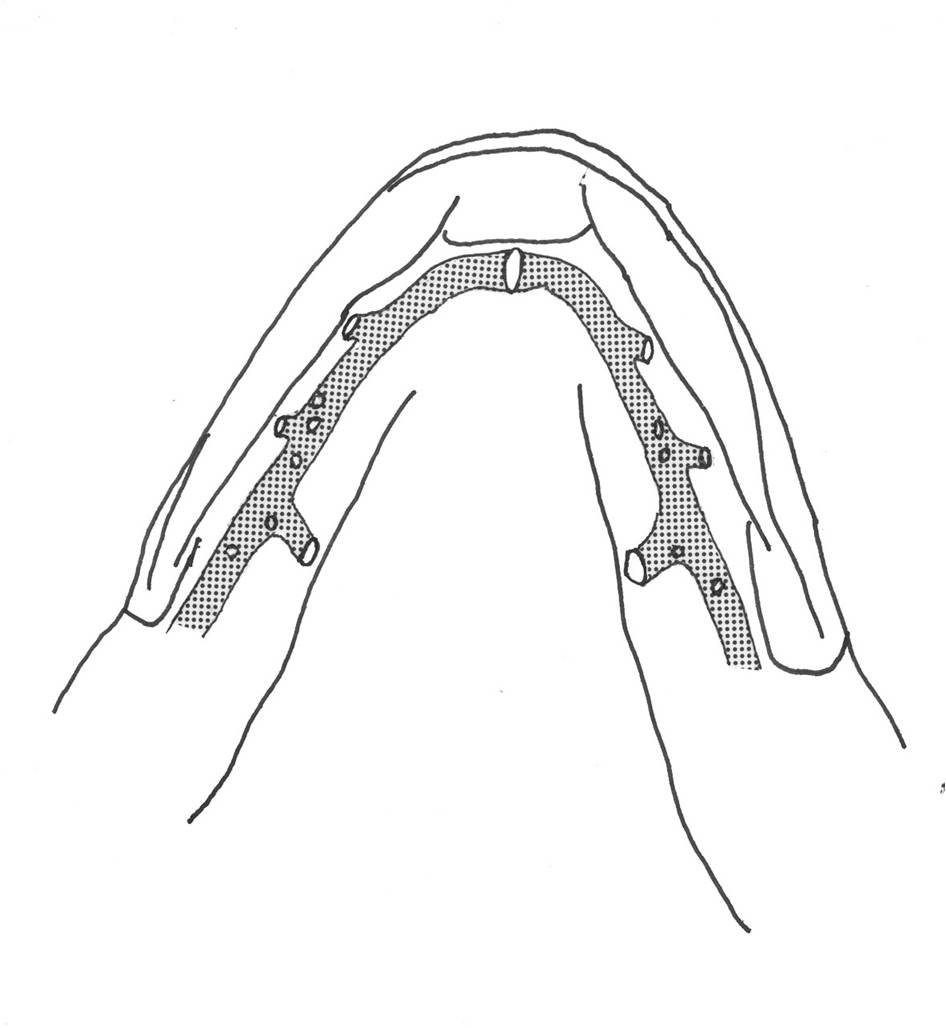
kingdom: Animalia
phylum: Chordata
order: Perciformes
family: Tripterygiidae
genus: Helcogramma
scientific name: Helcogramma fuscopinna
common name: Blackfin triplefin
